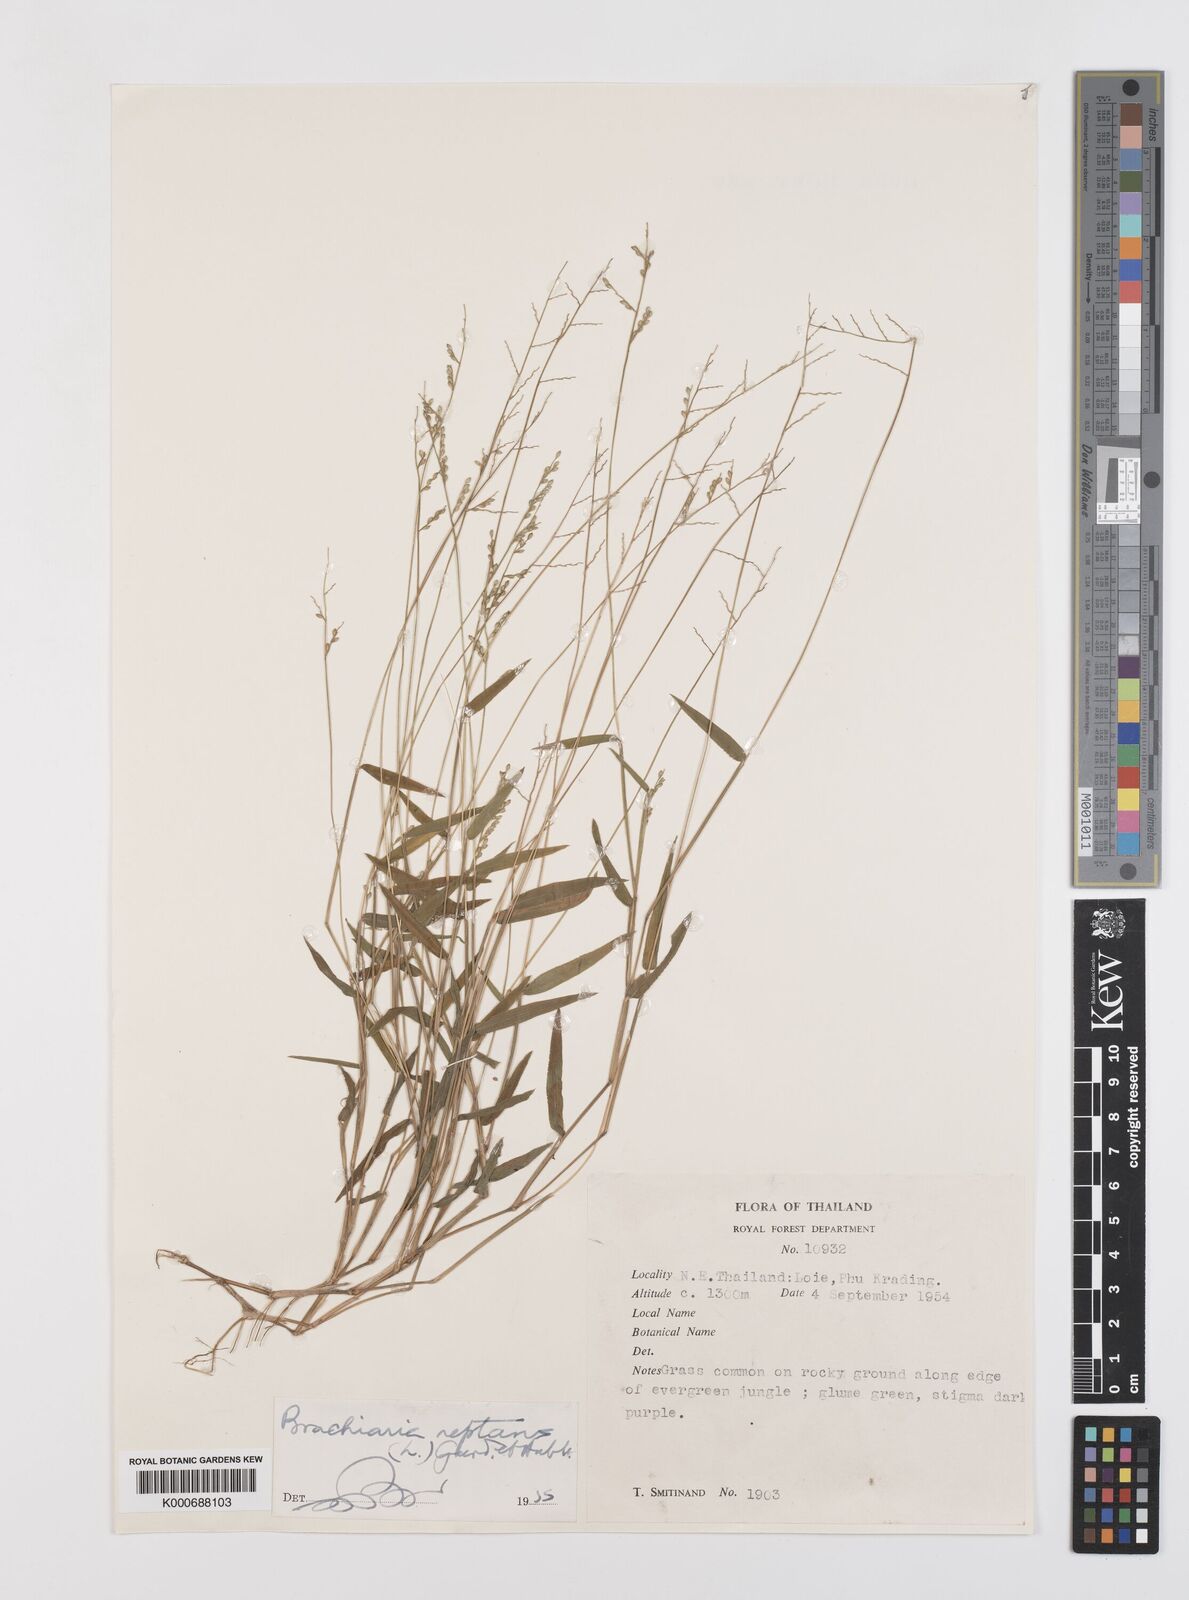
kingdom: Plantae
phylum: Tracheophyta
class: Liliopsida
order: Poales
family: Poaceae
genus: Urochloa
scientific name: Urochloa villosa
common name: Hairy signalgrass
